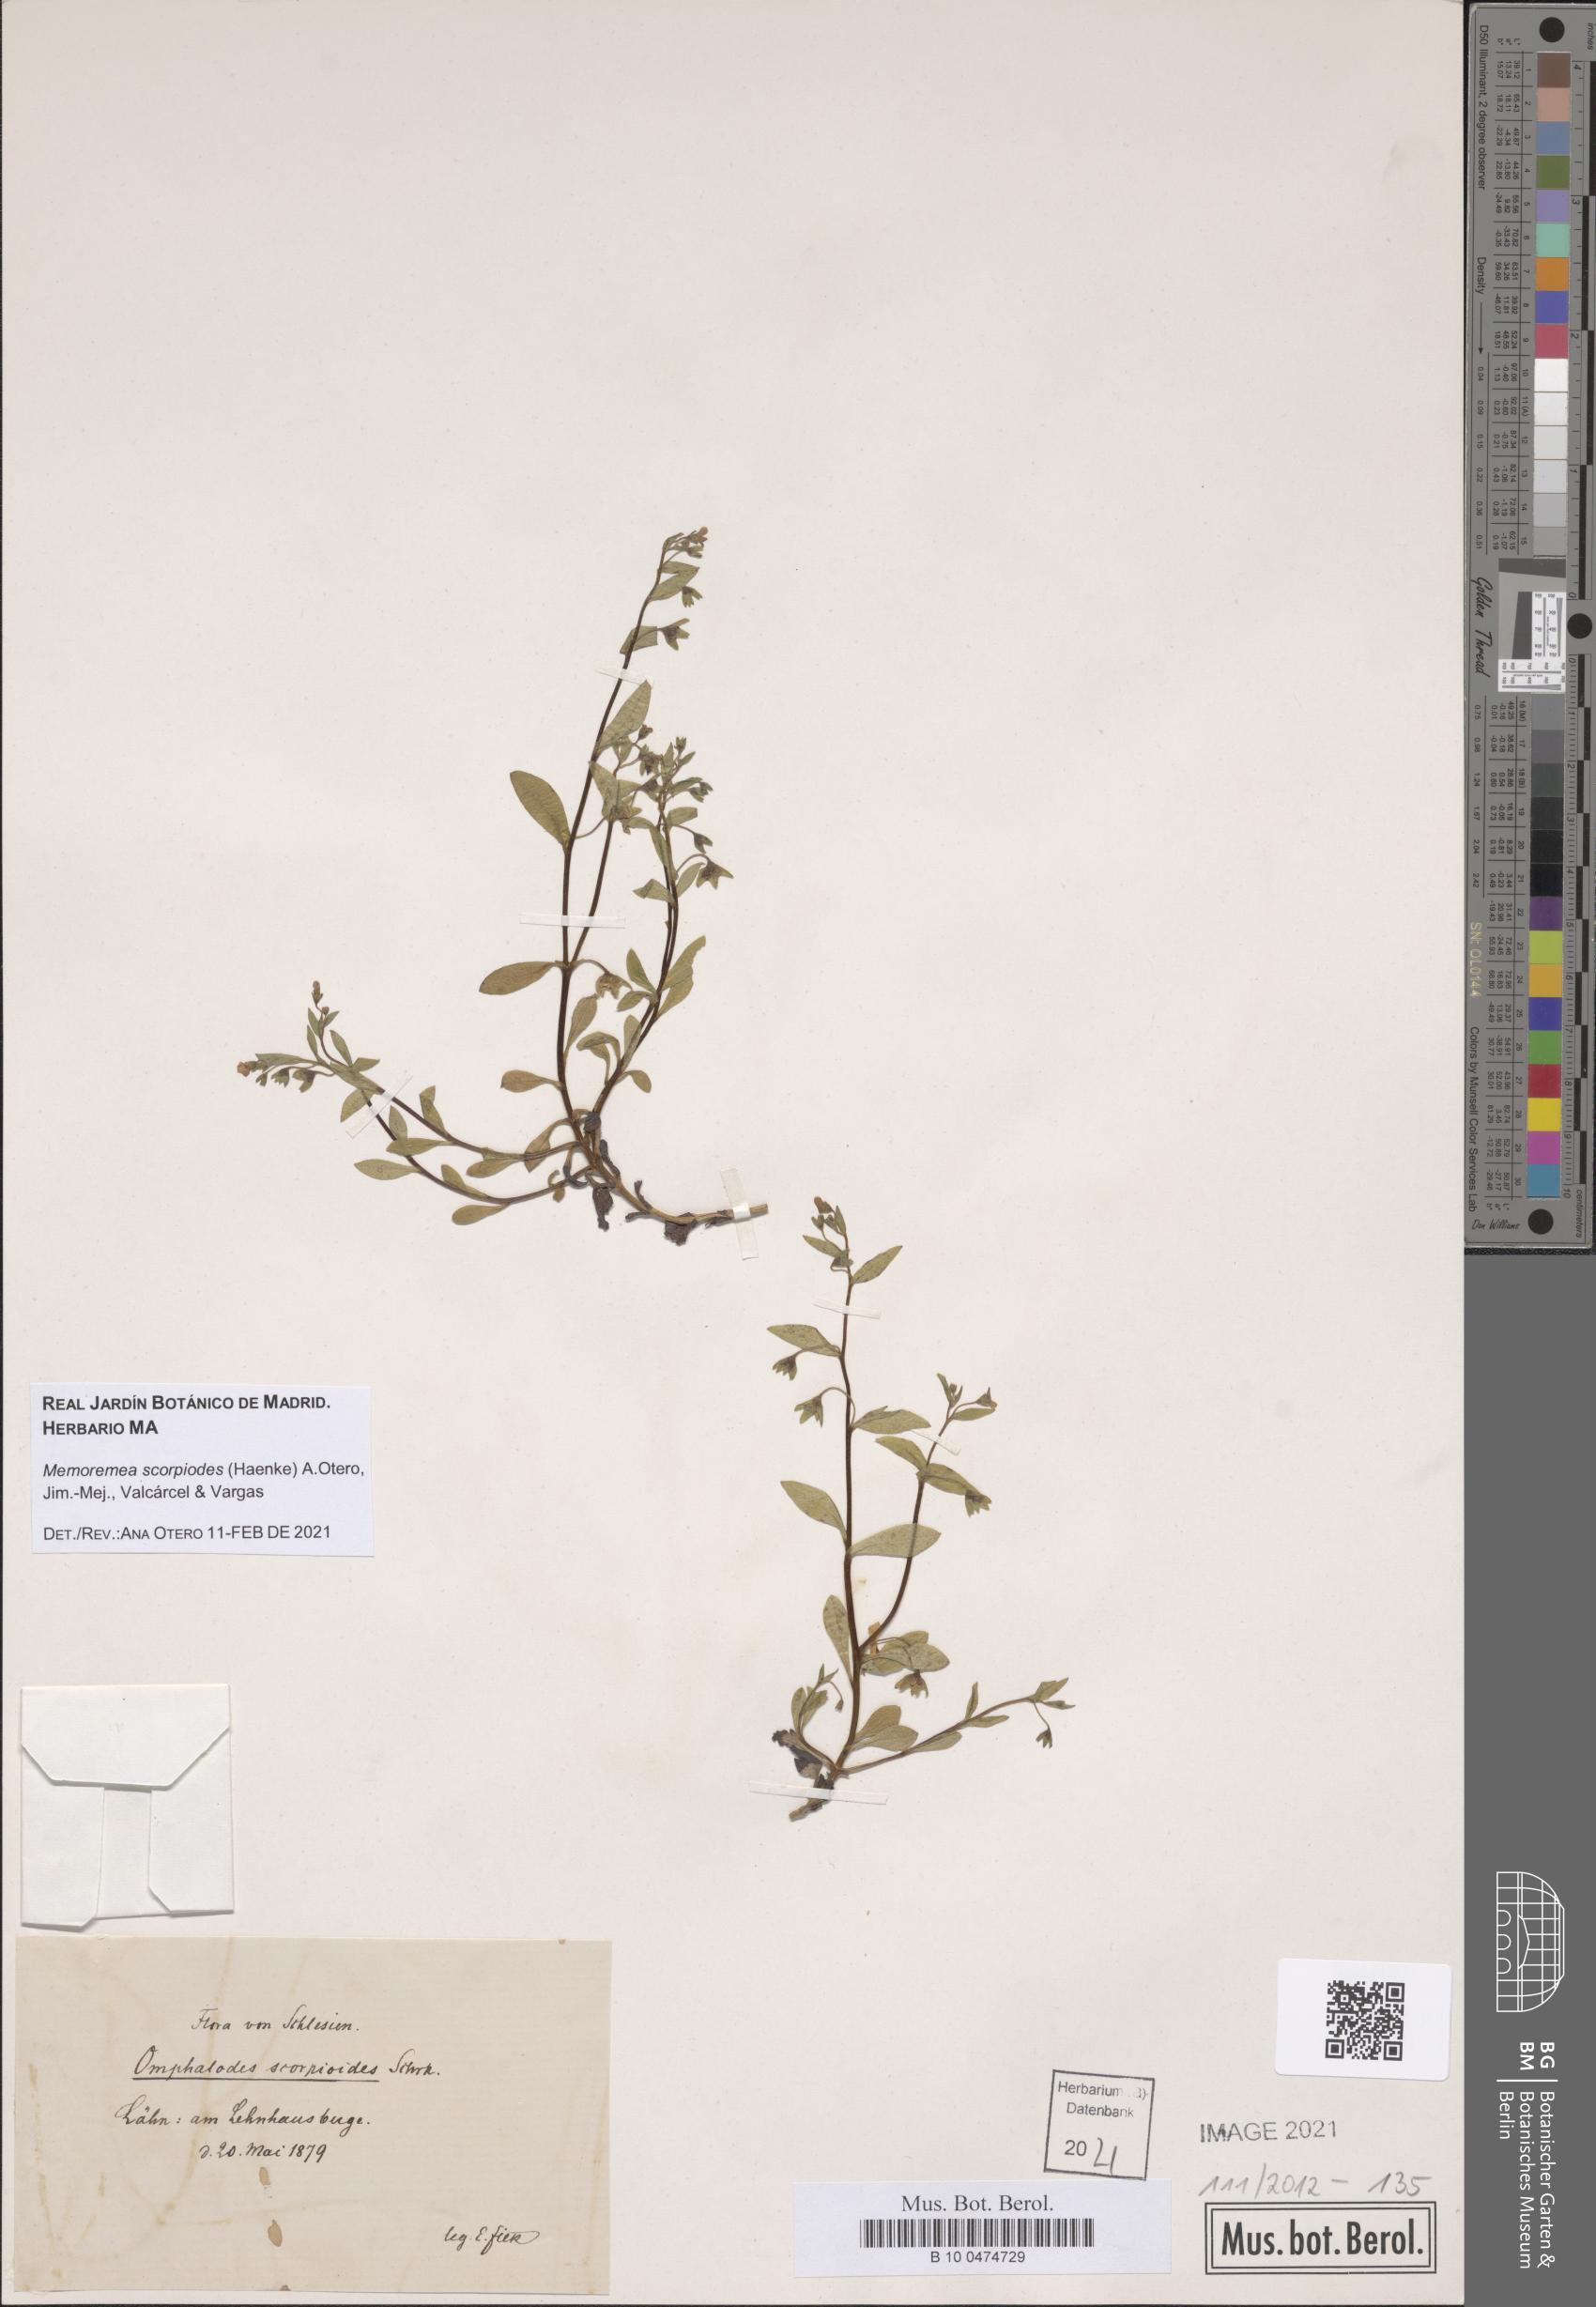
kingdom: Plantae
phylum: Tracheophyta
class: Magnoliopsida
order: Boraginales
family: Boraginaceae
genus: Memoremea
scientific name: Memoremea scorpioides
